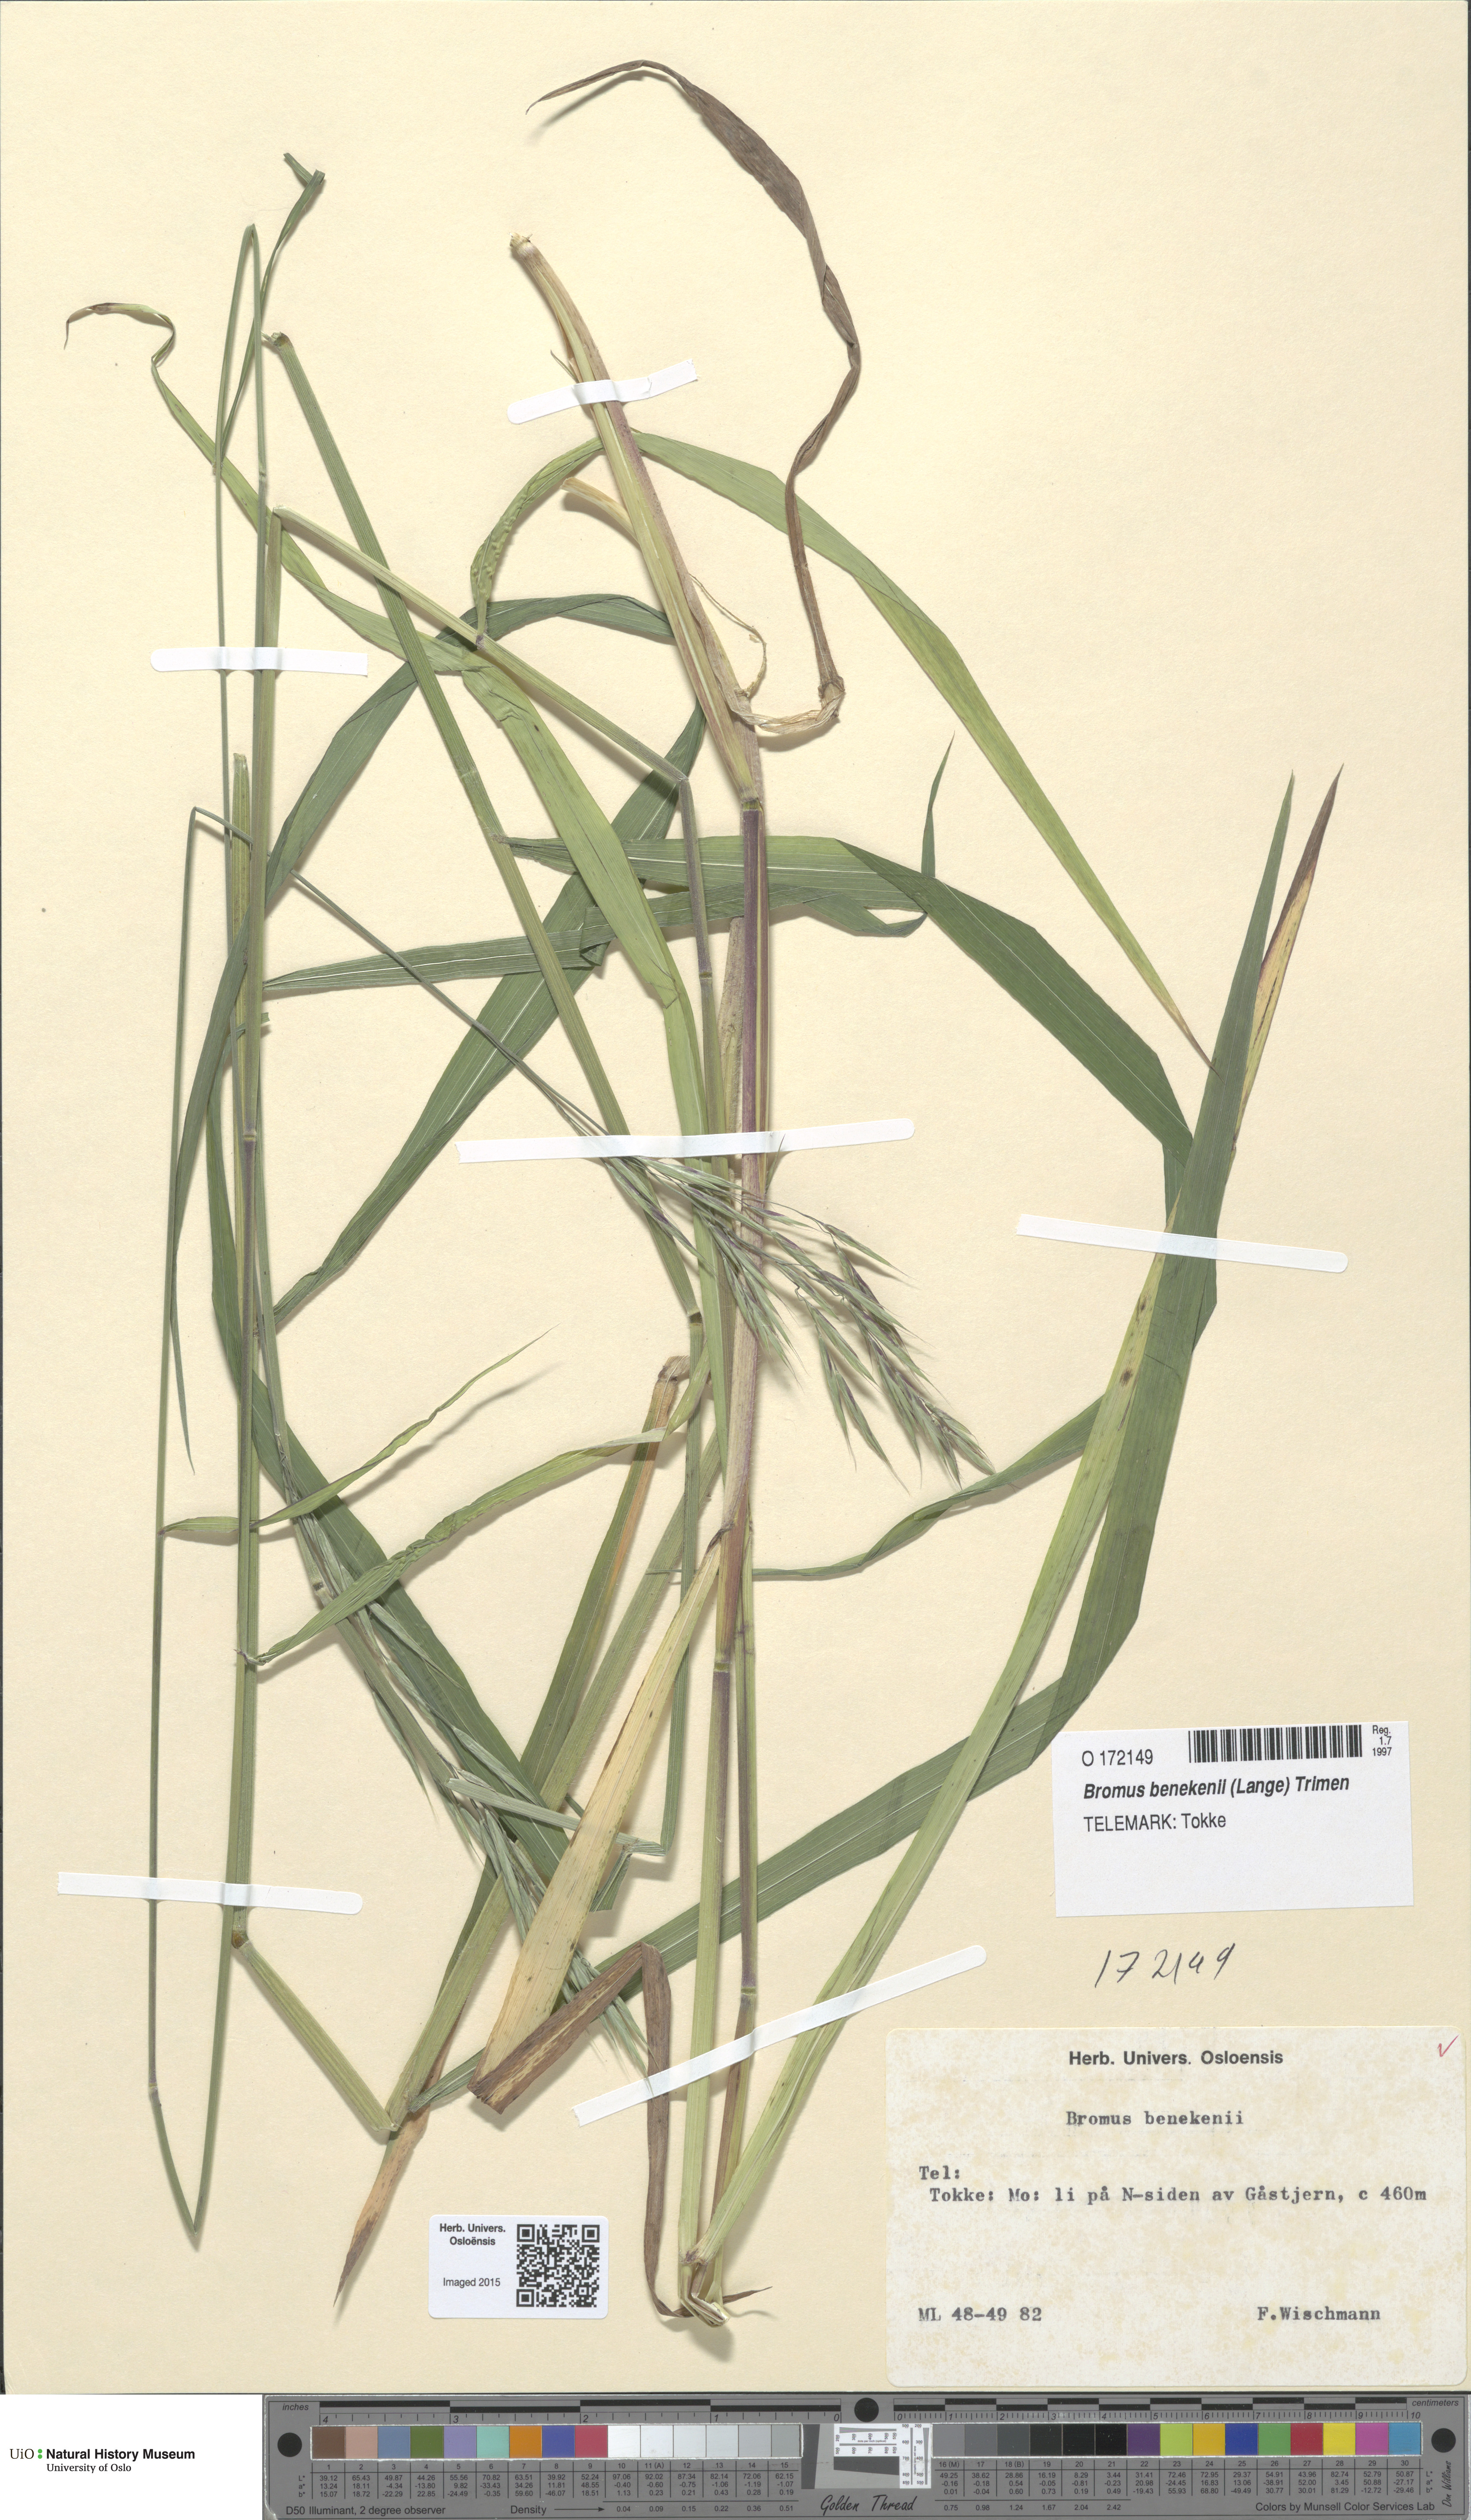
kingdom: Plantae
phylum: Tracheophyta
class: Liliopsida
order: Poales
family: Poaceae
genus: Bromus
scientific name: Bromus benekenii
